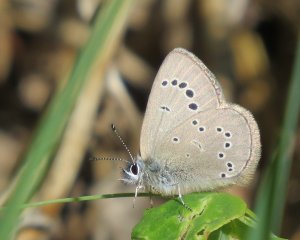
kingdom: Animalia
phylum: Arthropoda
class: Insecta
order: Lepidoptera
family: Lycaenidae
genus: Glaucopsyche
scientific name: Glaucopsyche lygdamus
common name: Silvery Blue
